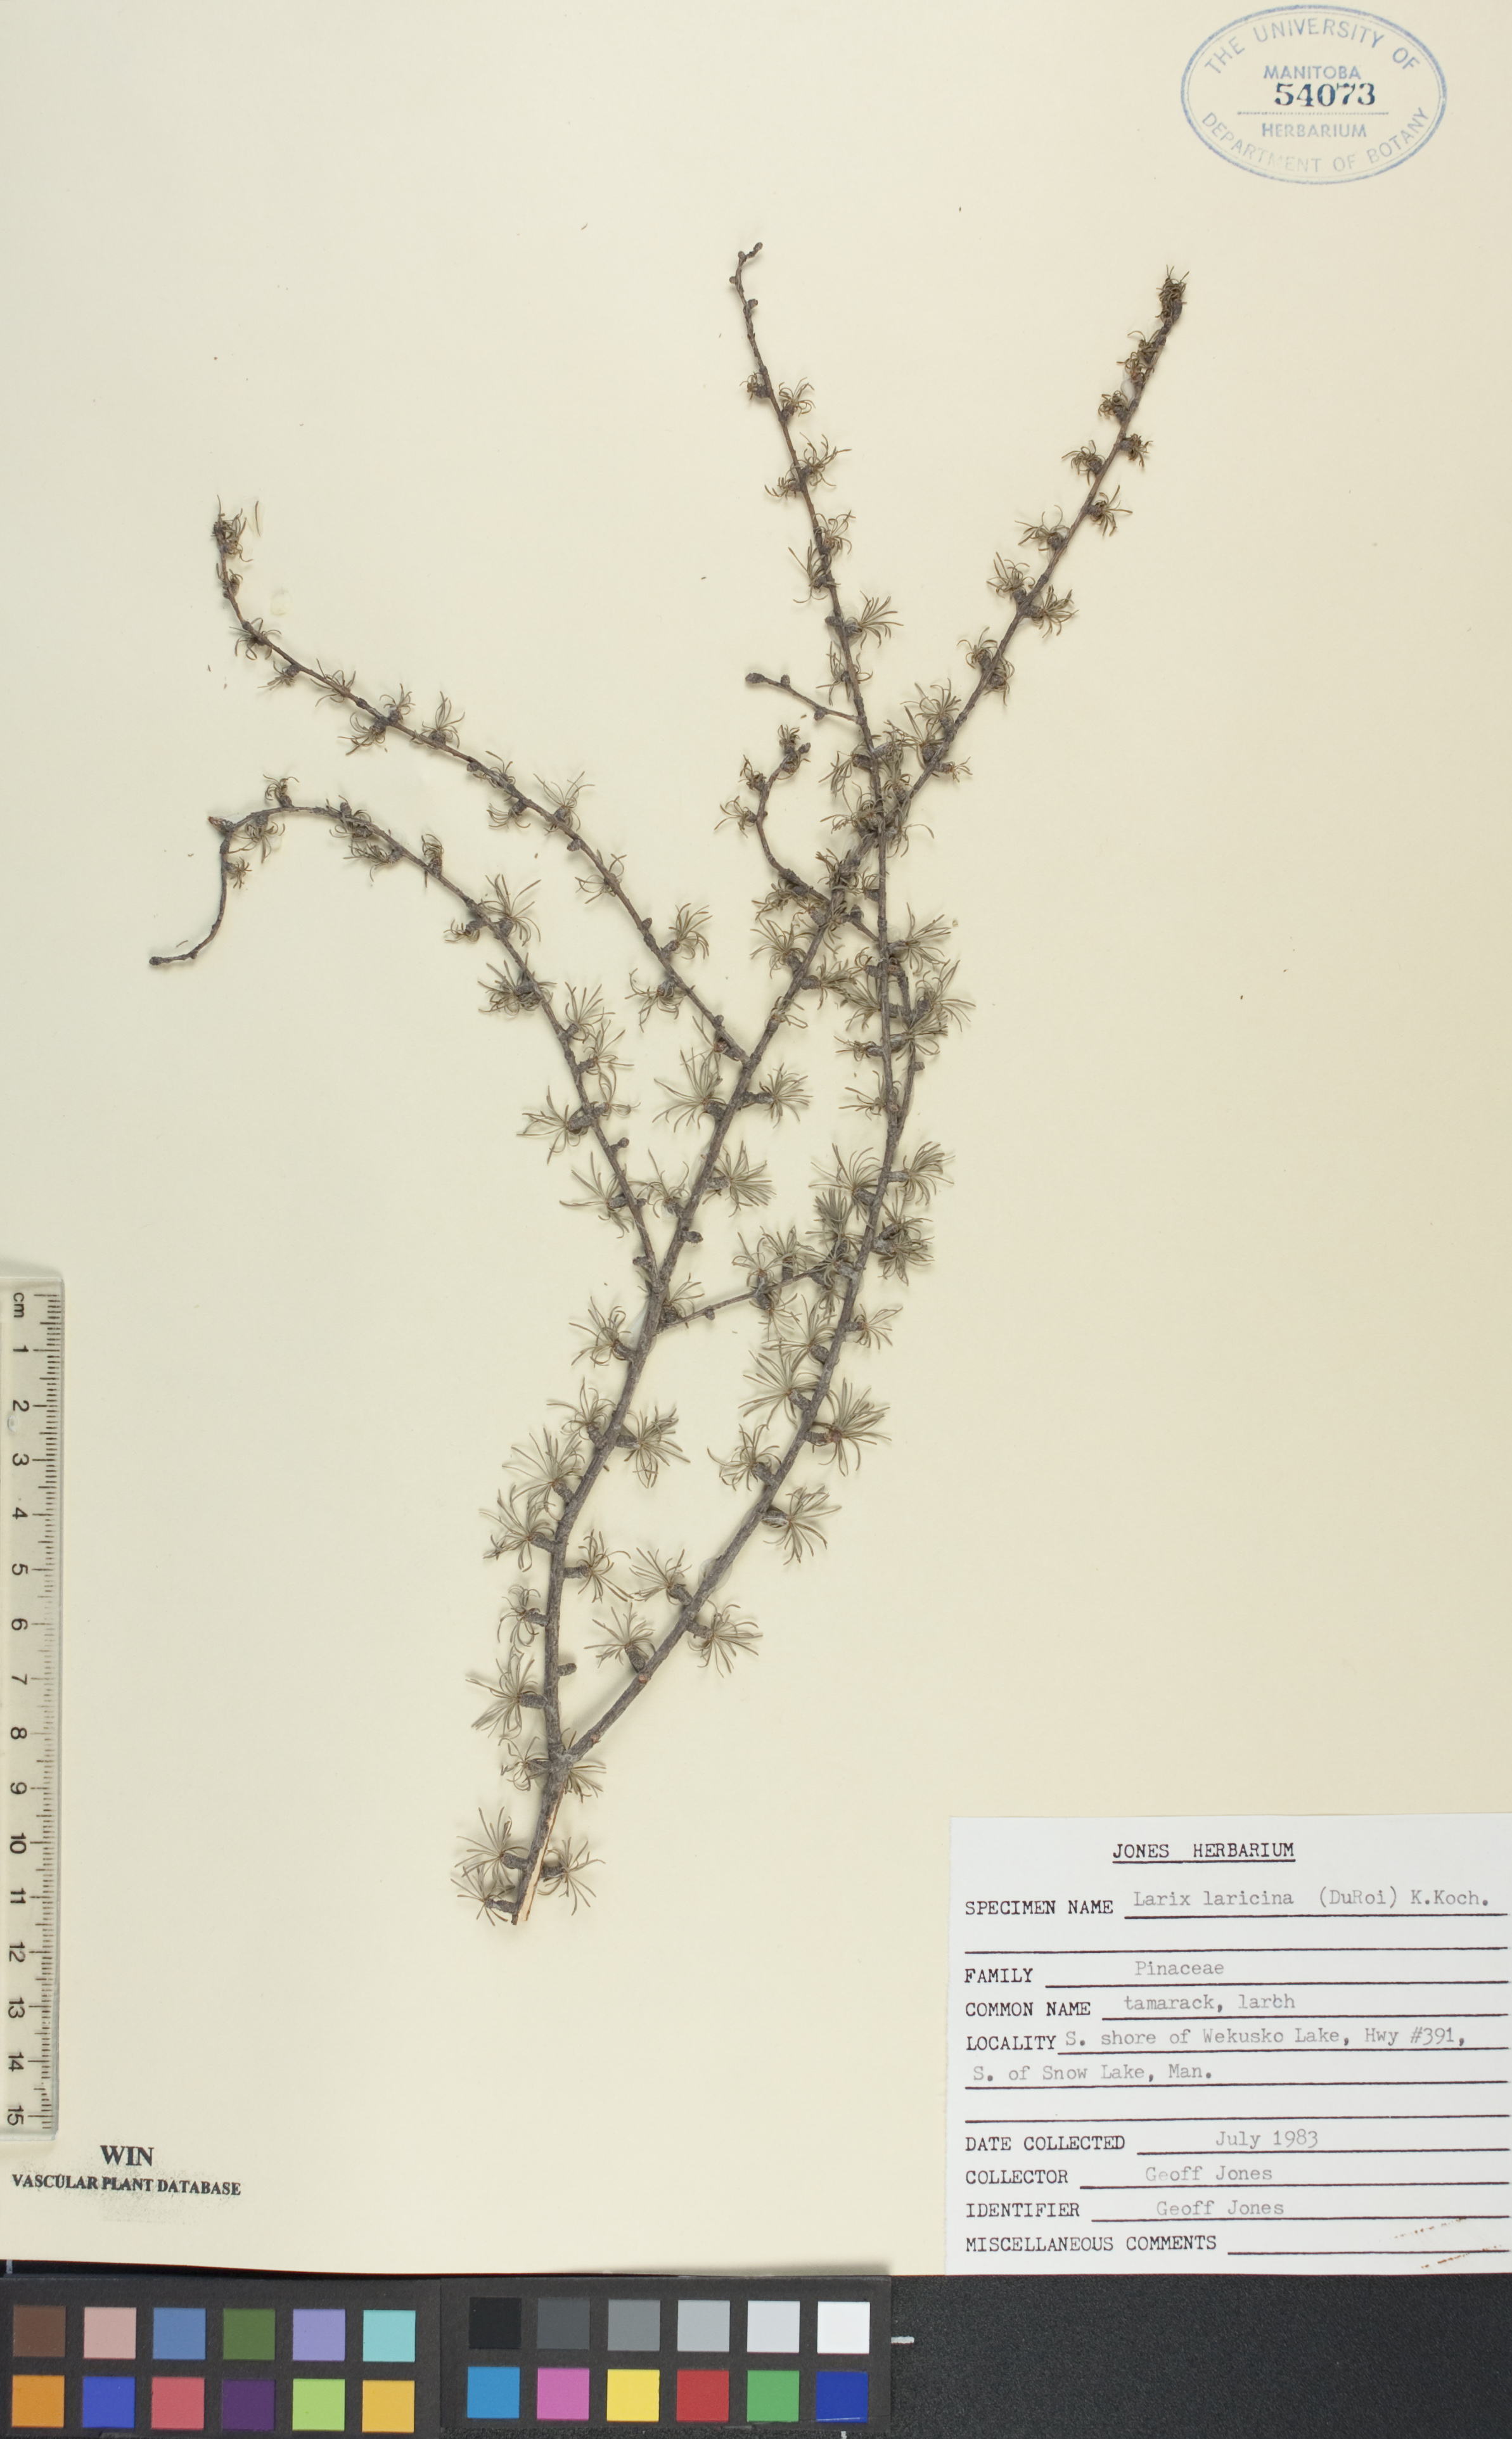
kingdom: Plantae
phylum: Tracheophyta
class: Pinopsida
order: Pinales
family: Pinaceae
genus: Larix
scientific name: Larix laricina
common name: American larch
